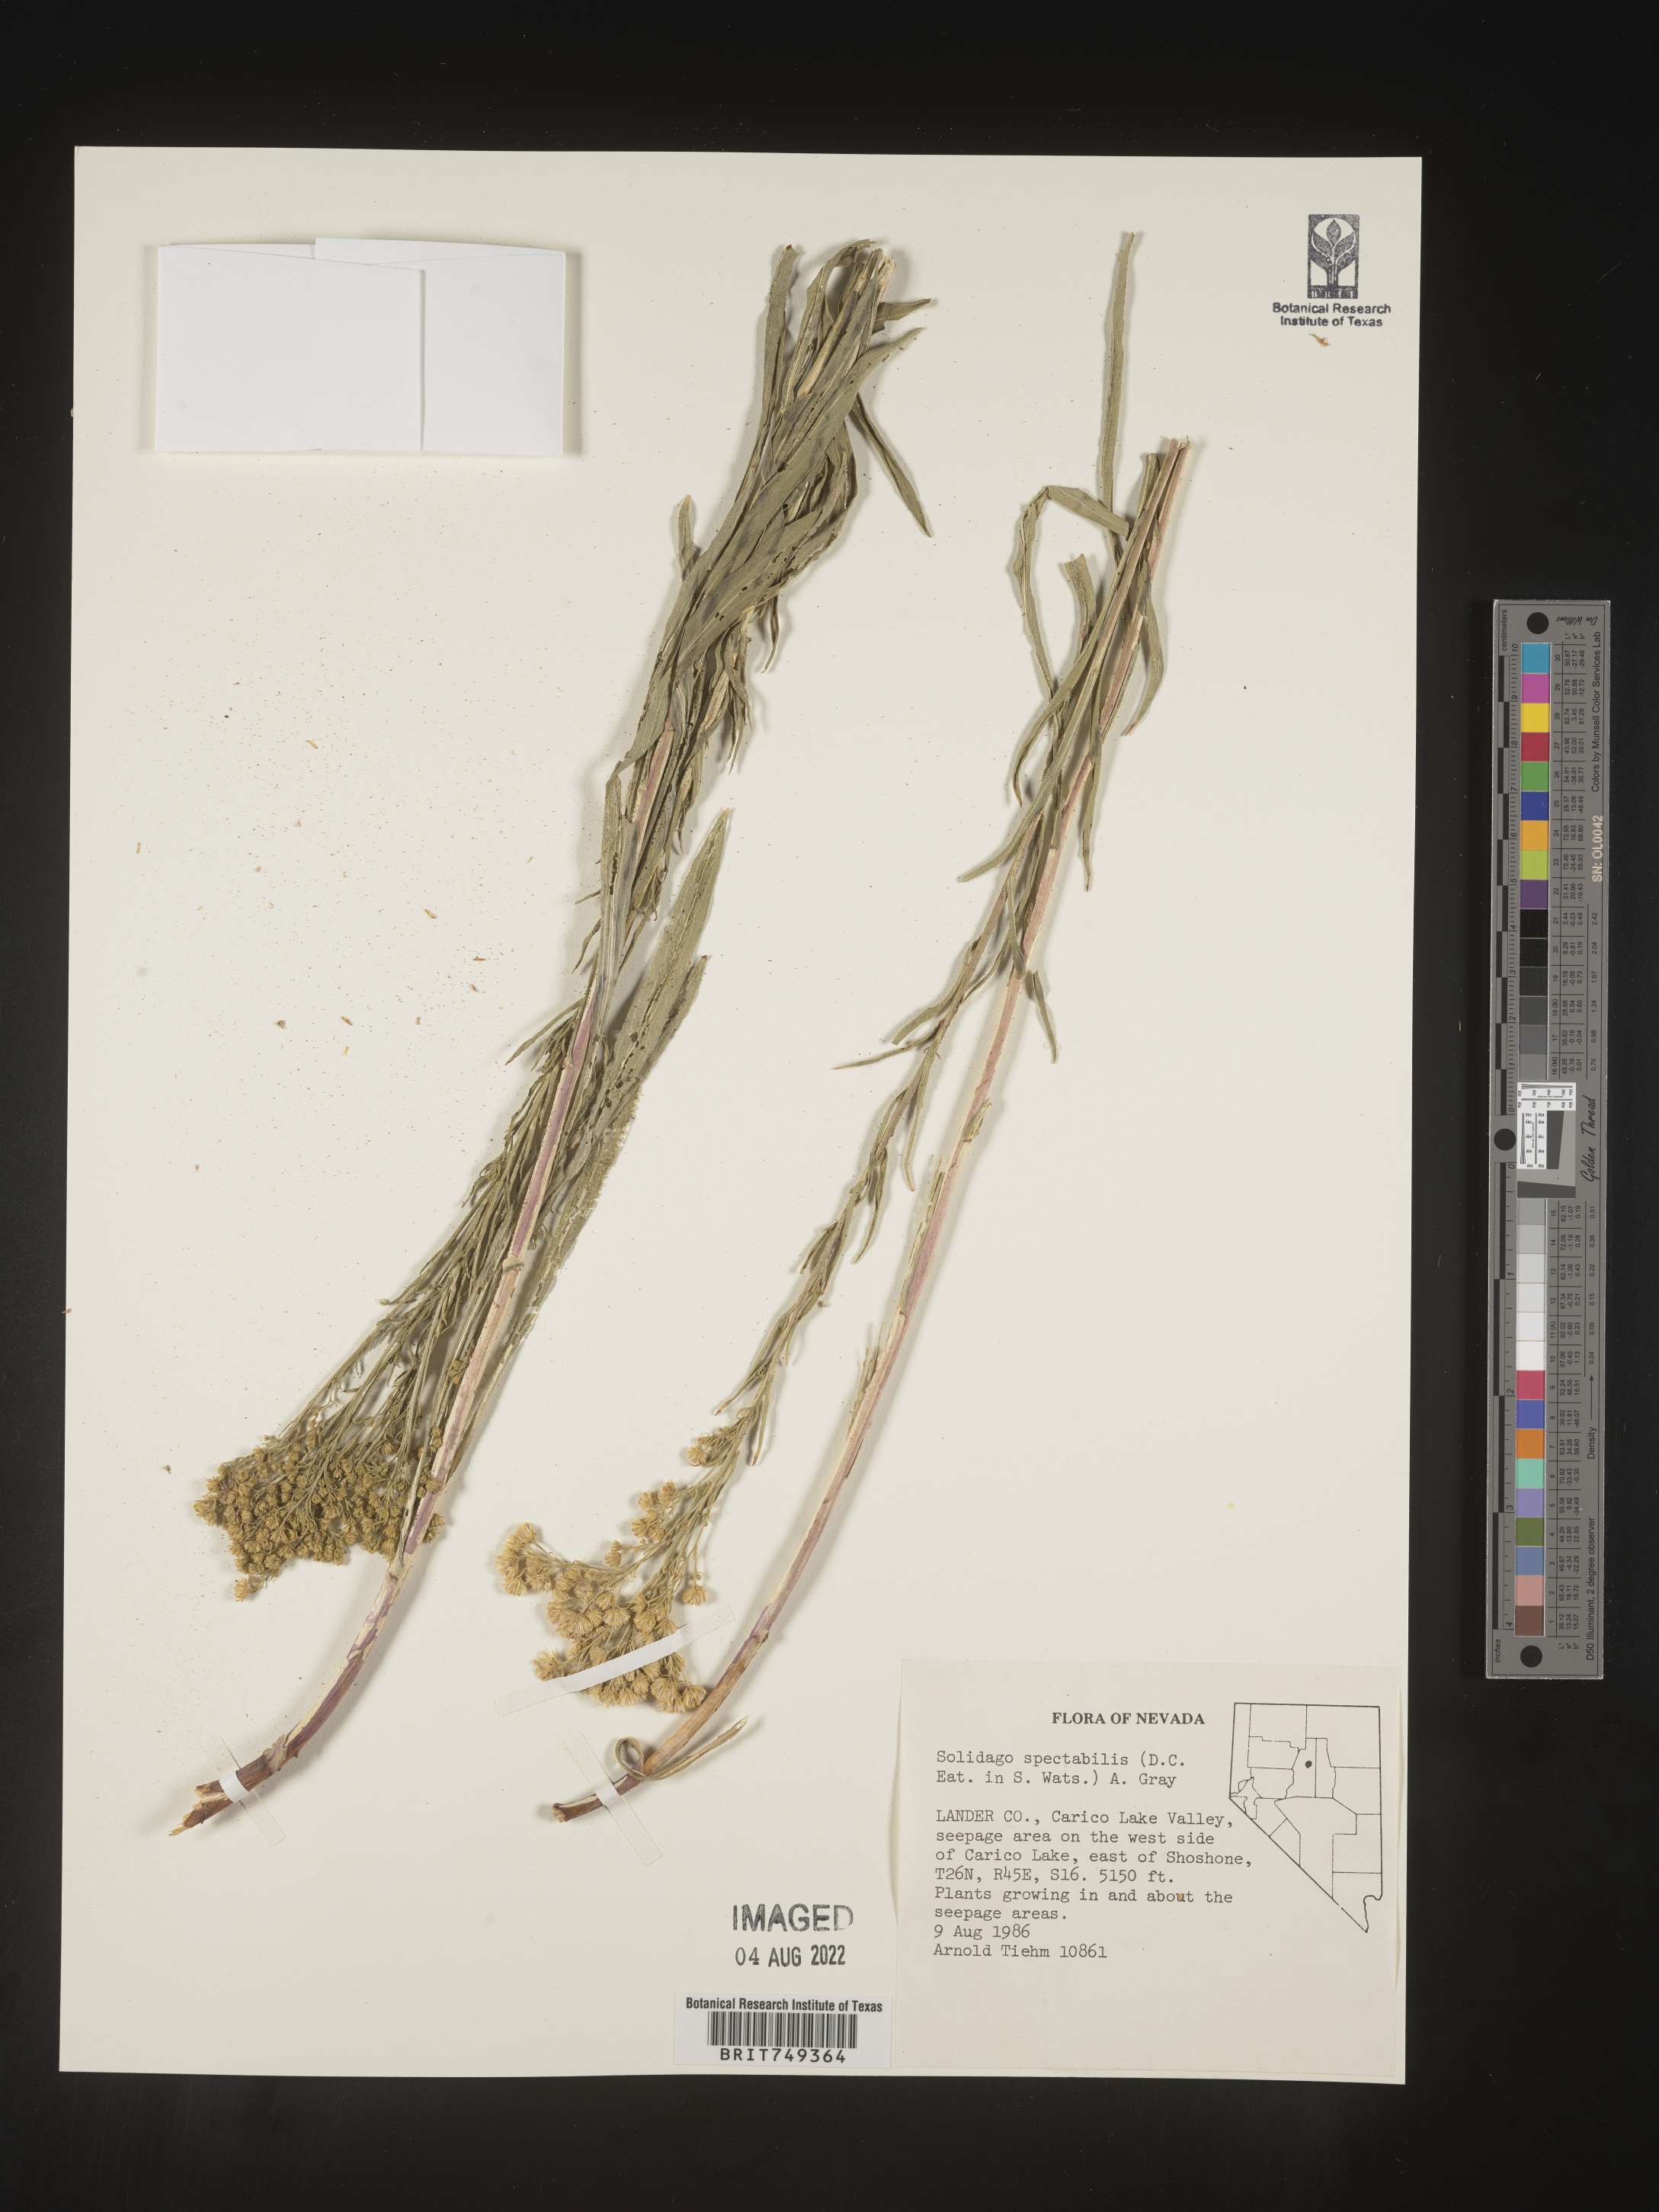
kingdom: Plantae
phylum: Tracheophyta
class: Magnoliopsida
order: Asterales
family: Asteraceae
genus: Solidago
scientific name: Solidago spectabilis
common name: Basin goldenrod
